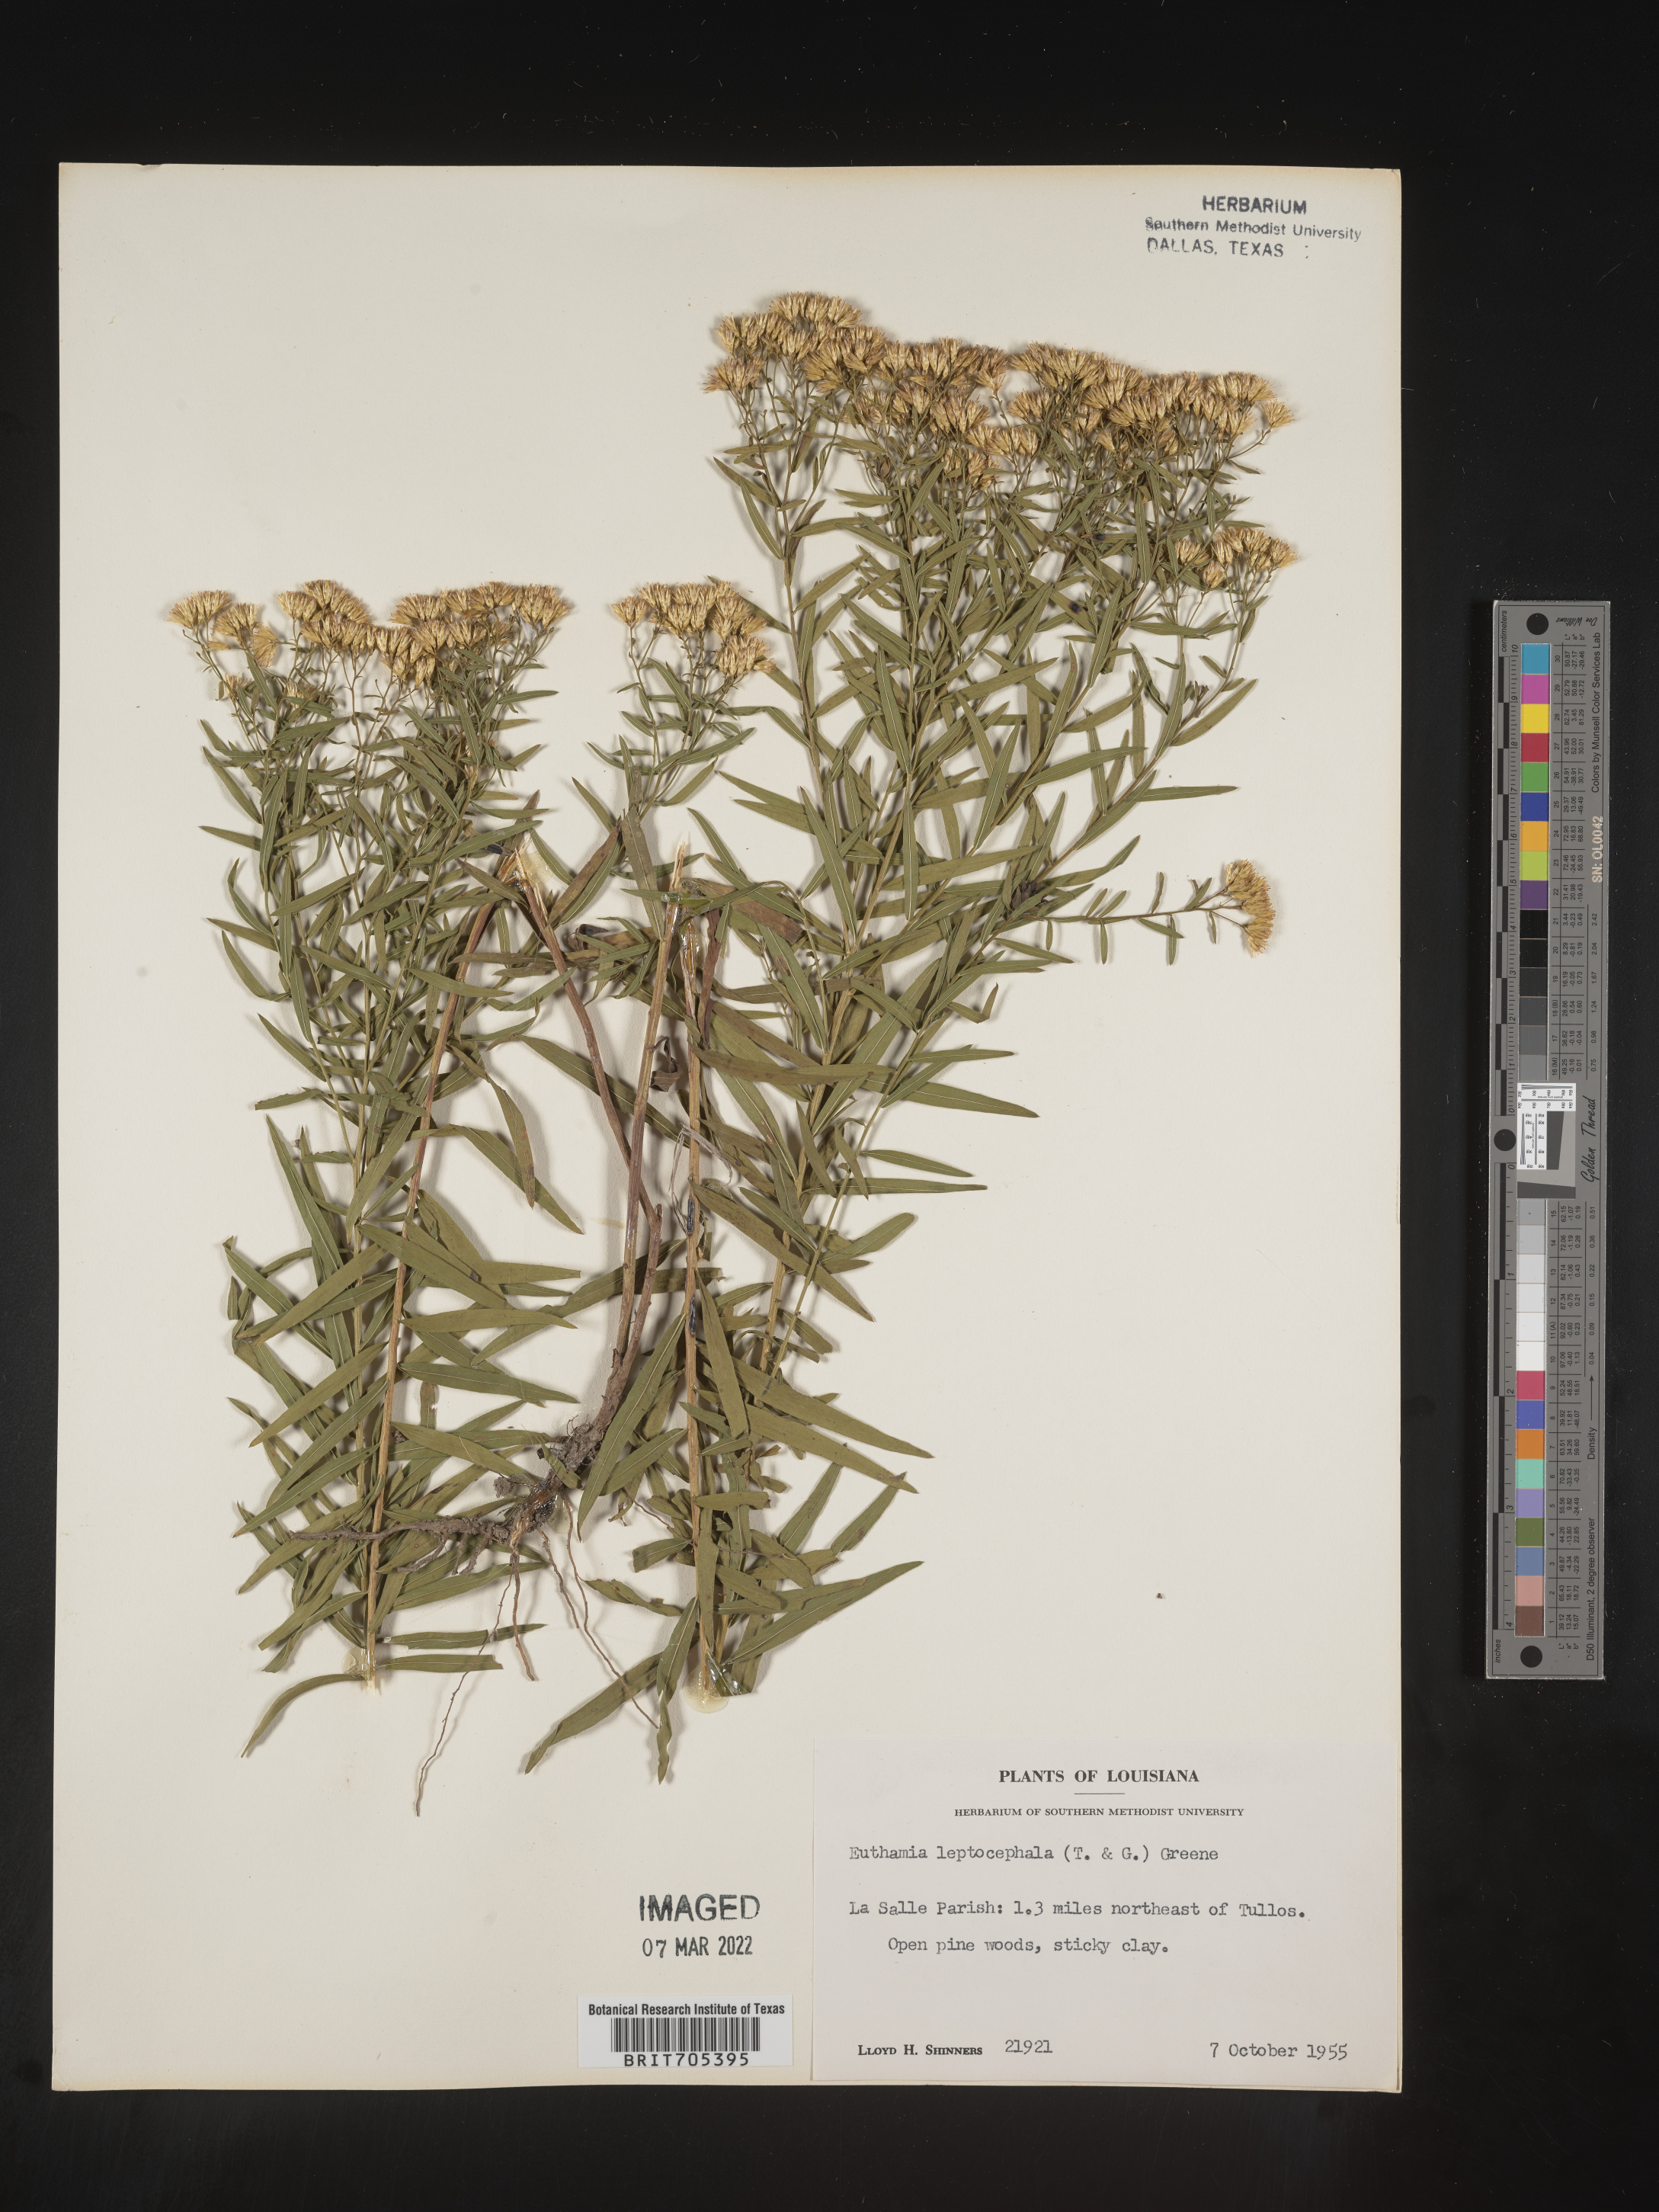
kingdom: Plantae
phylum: Tracheophyta
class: Magnoliopsida
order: Asterales
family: Asteraceae
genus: Euthamia
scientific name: Euthamia leptocephala
